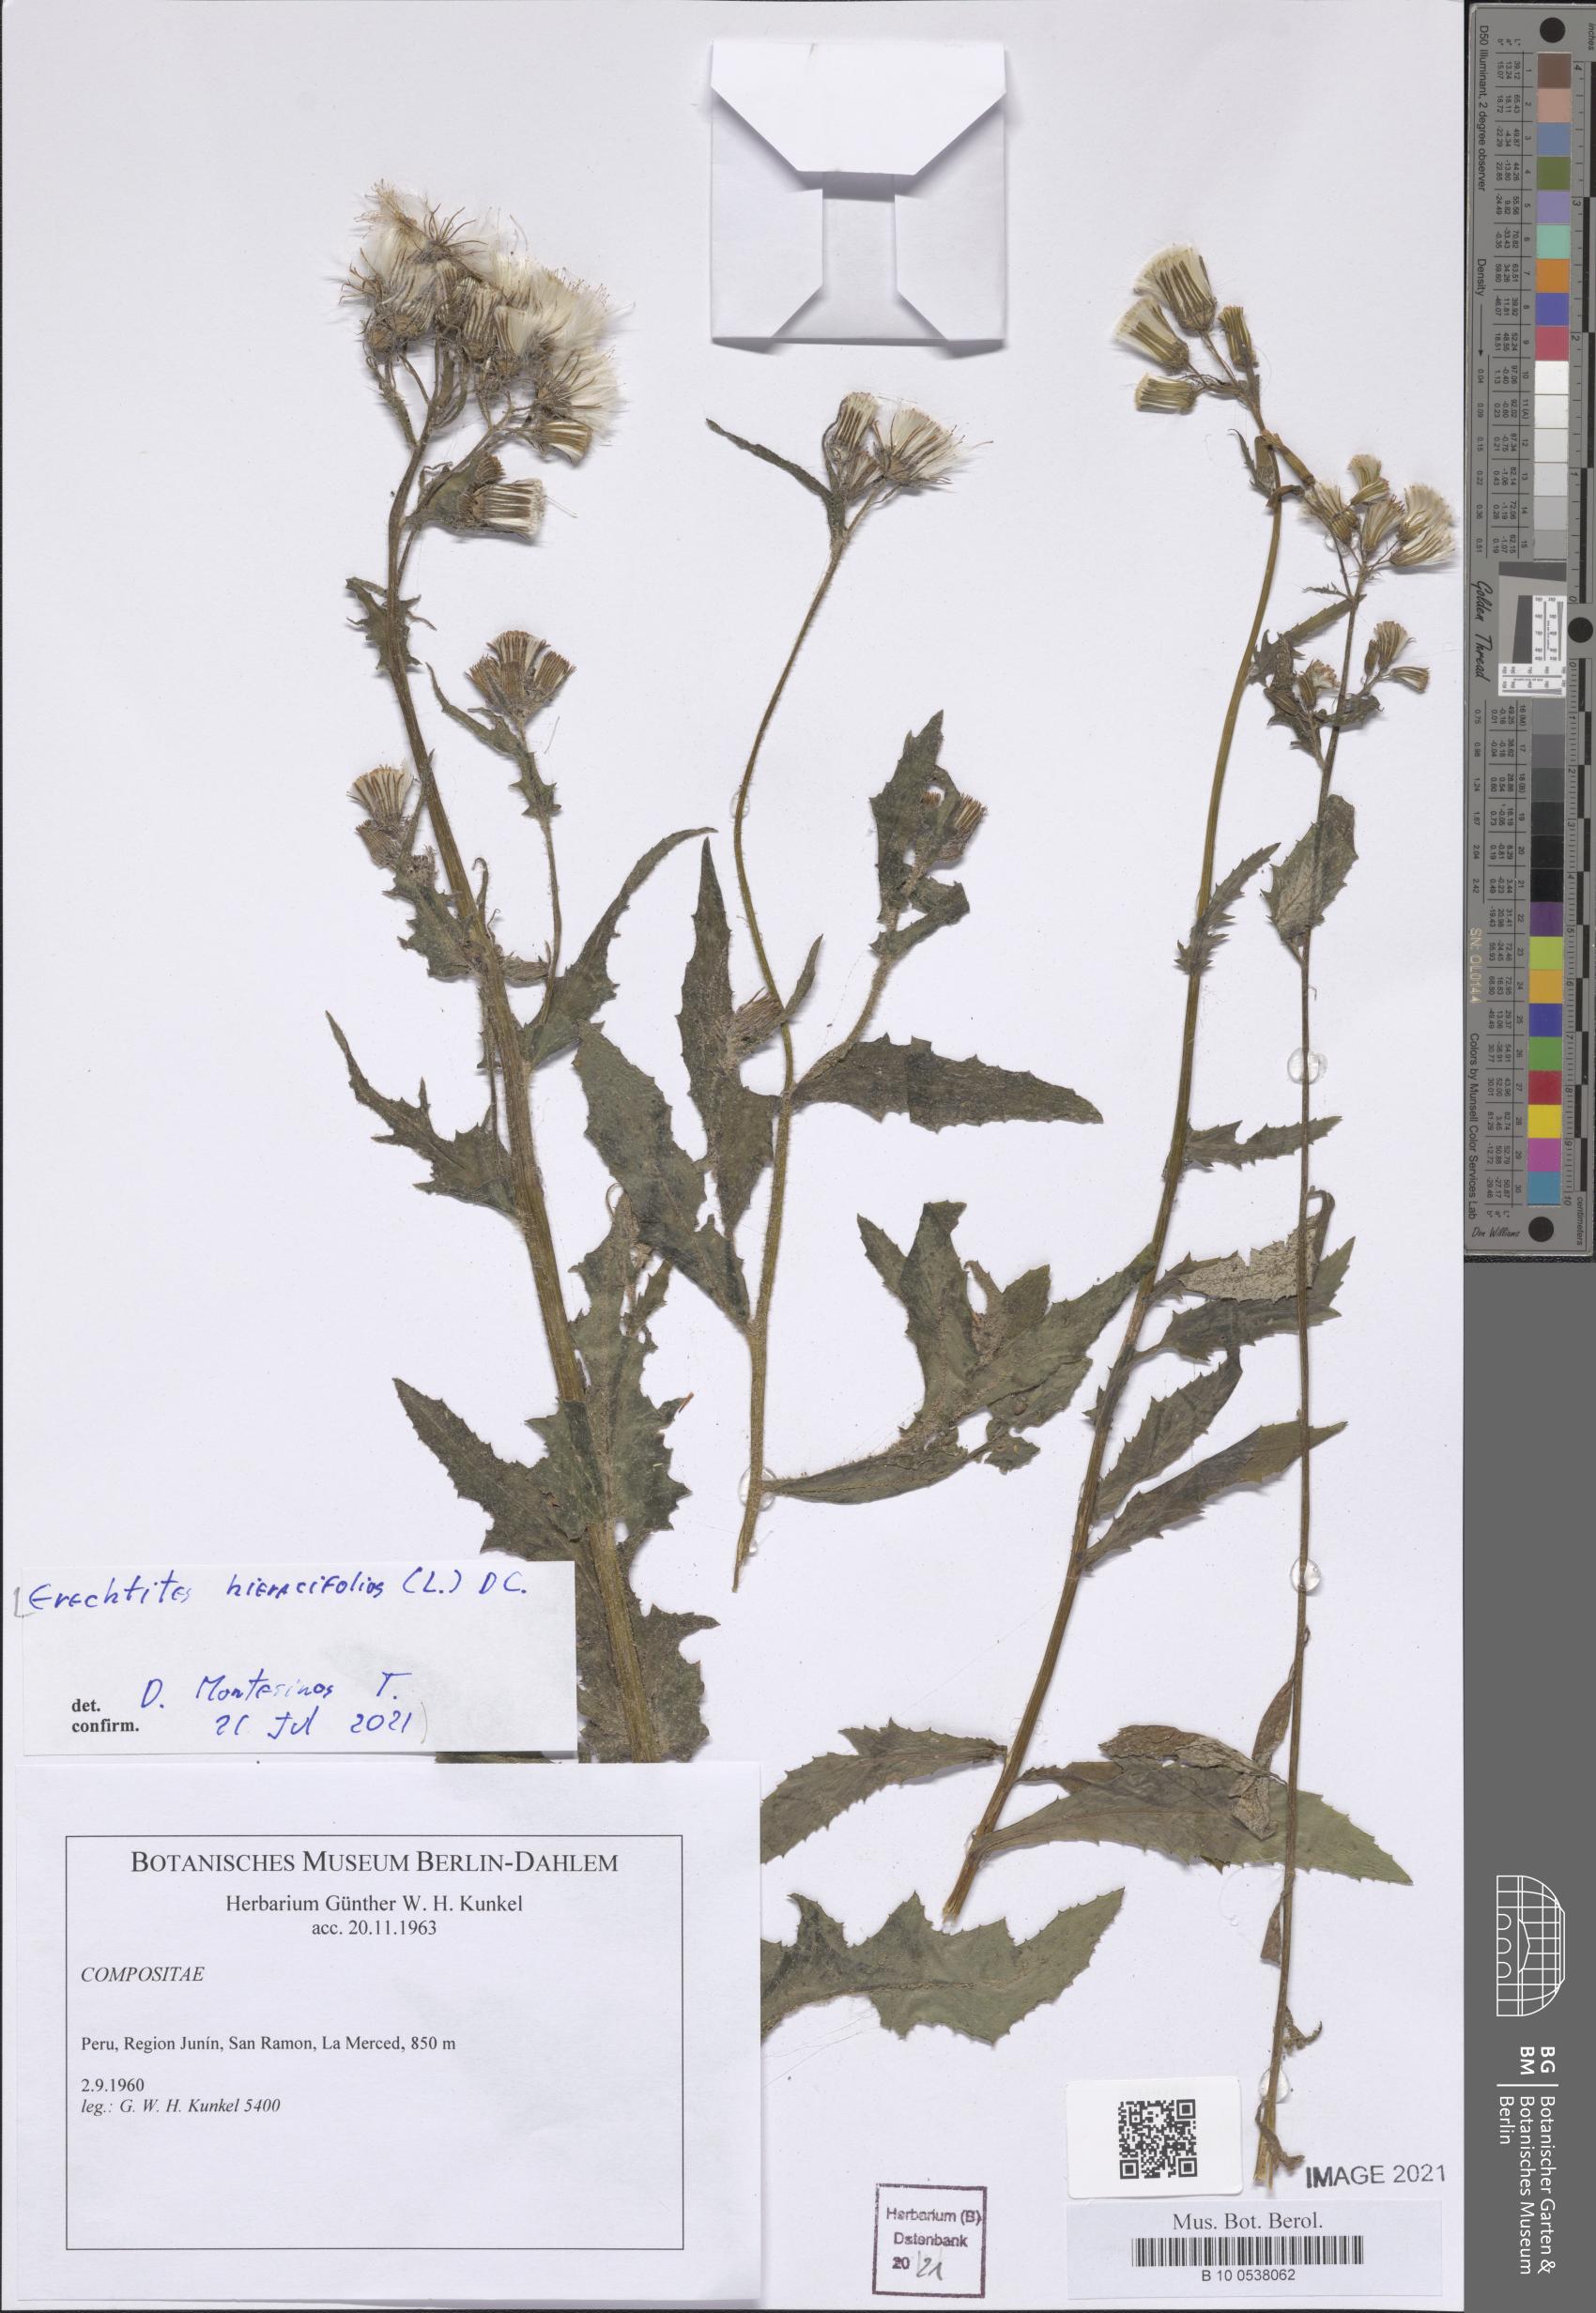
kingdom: Plantae
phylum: Tracheophyta
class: Magnoliopsida
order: Asterales
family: Asteraceae
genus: Erechtites
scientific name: Erechtites hieraciifolius
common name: American burnweed
